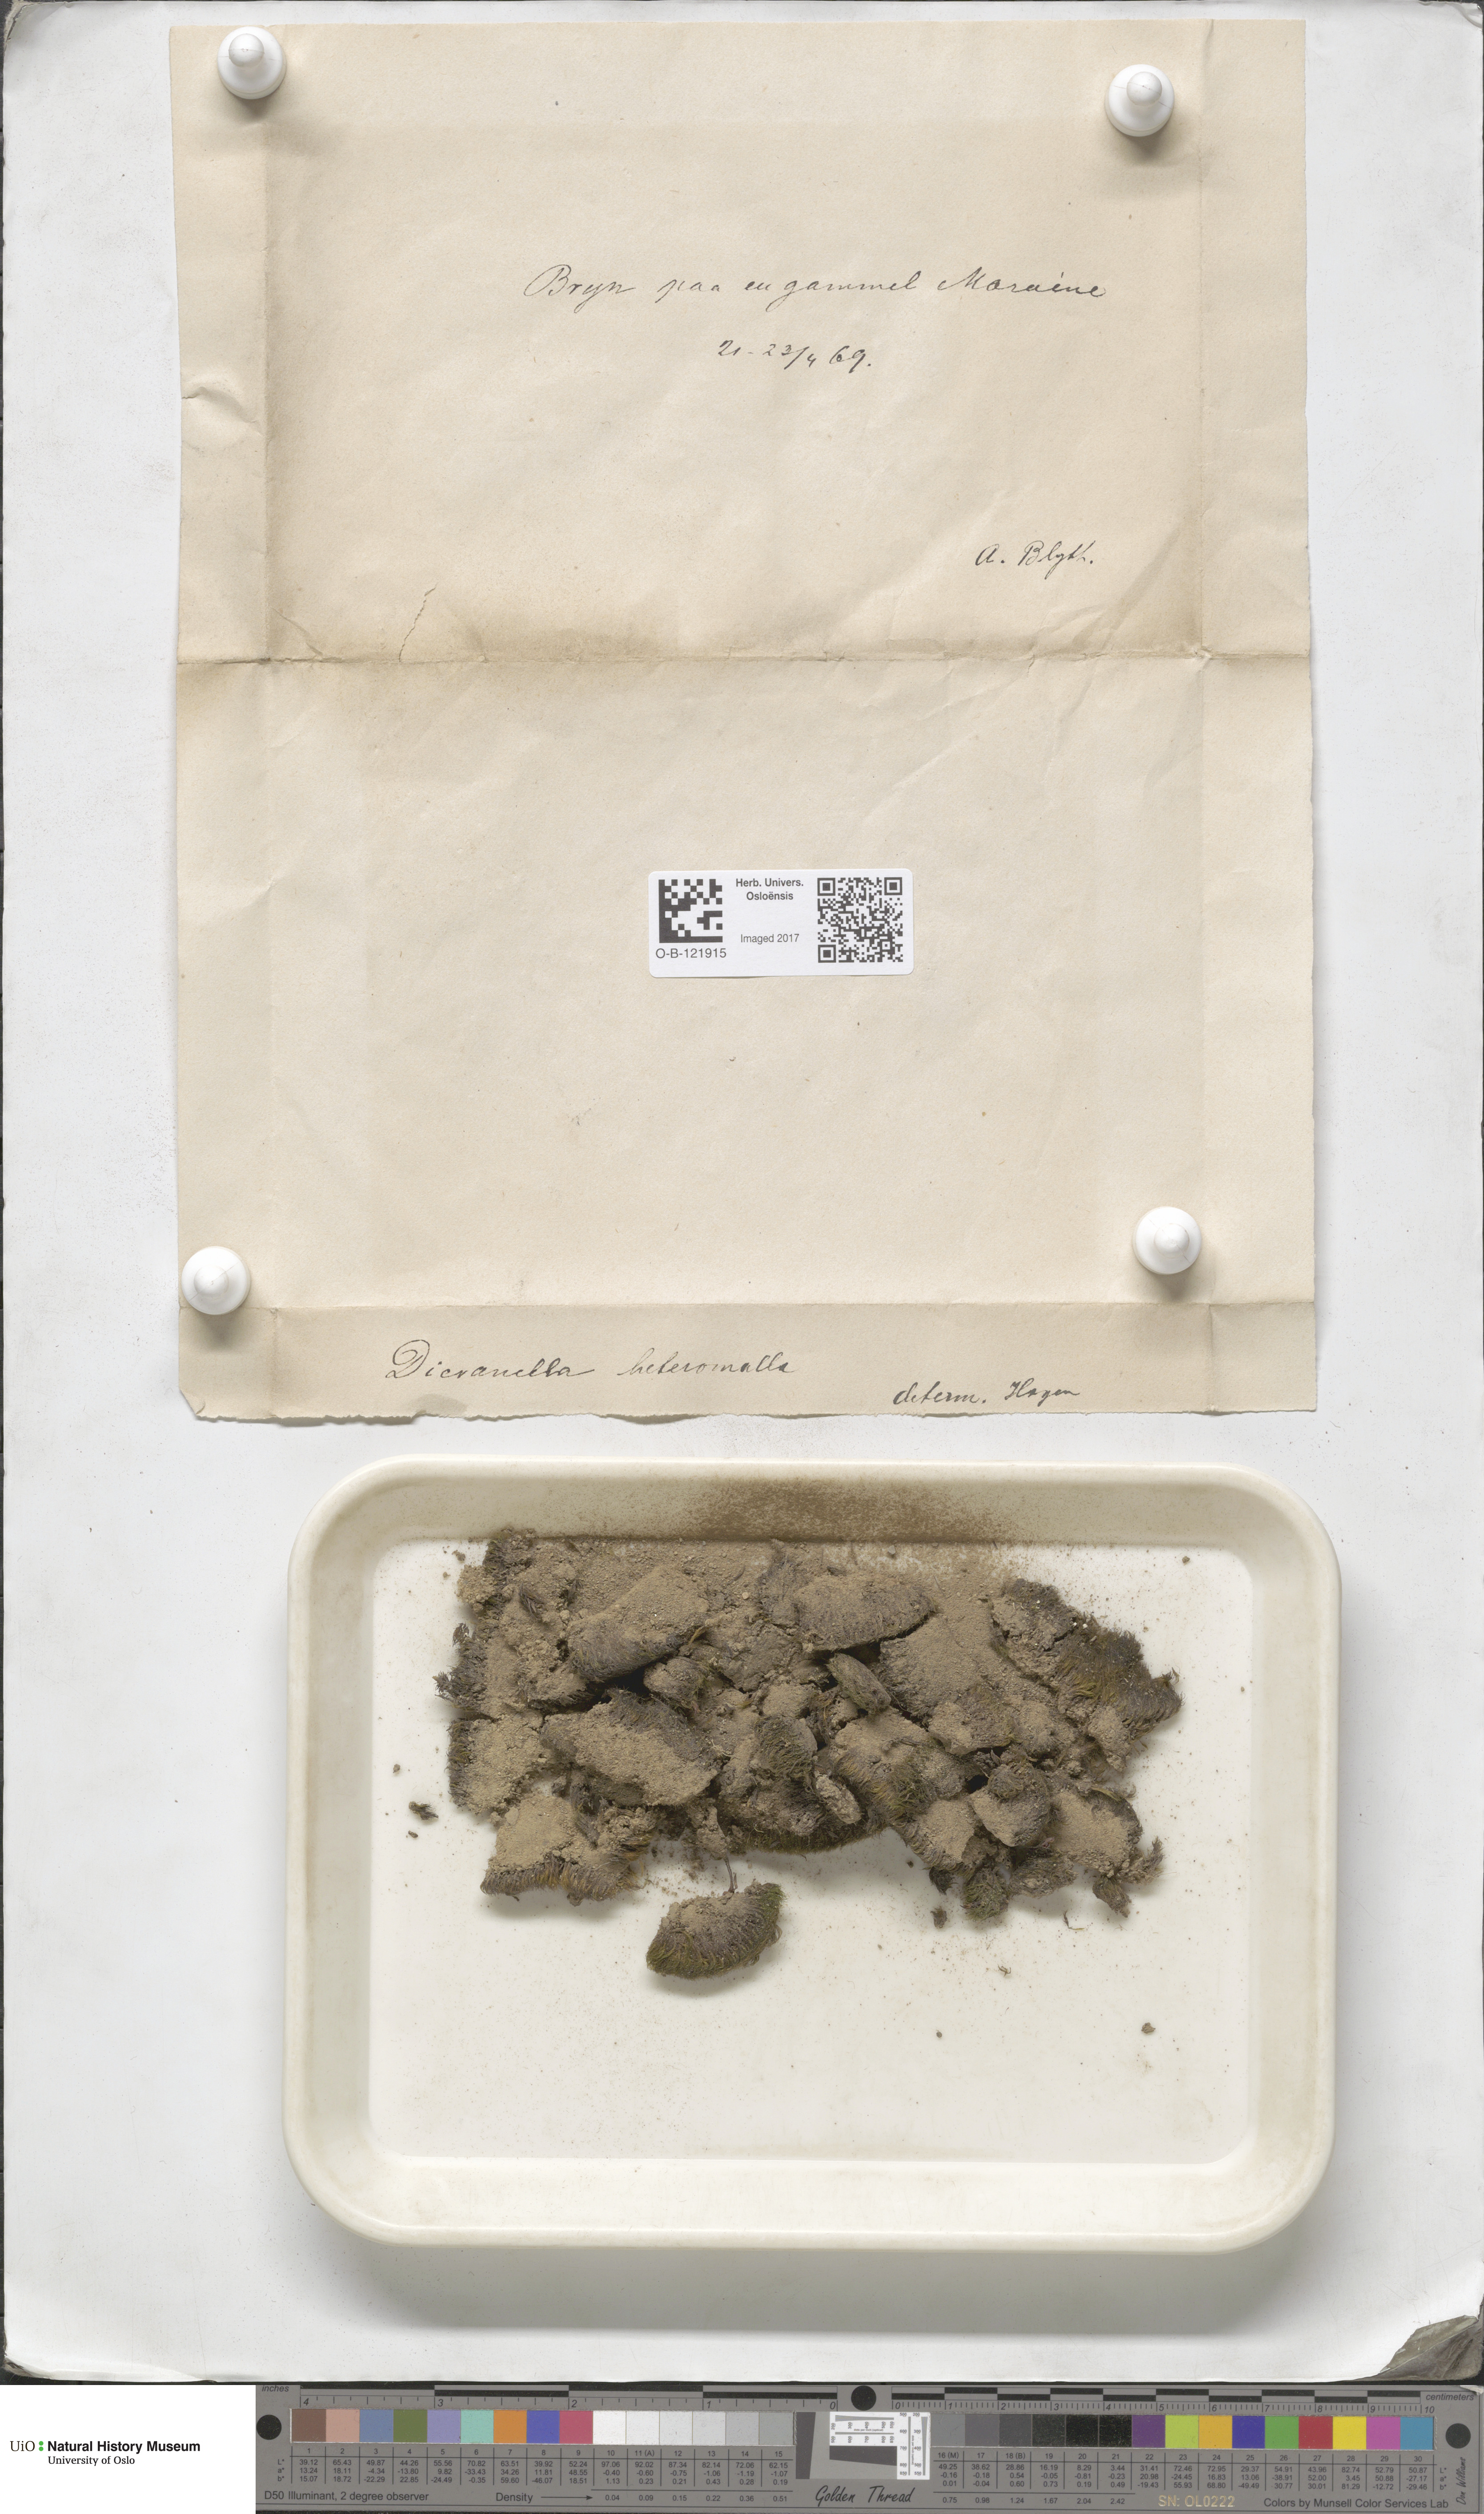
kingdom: Plantae
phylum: Bryophyta
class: Bryopsida
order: Dicranales
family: Dicranellaceae
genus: Dicranella
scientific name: Dicranella heteromalla
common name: Silky forklet moss
